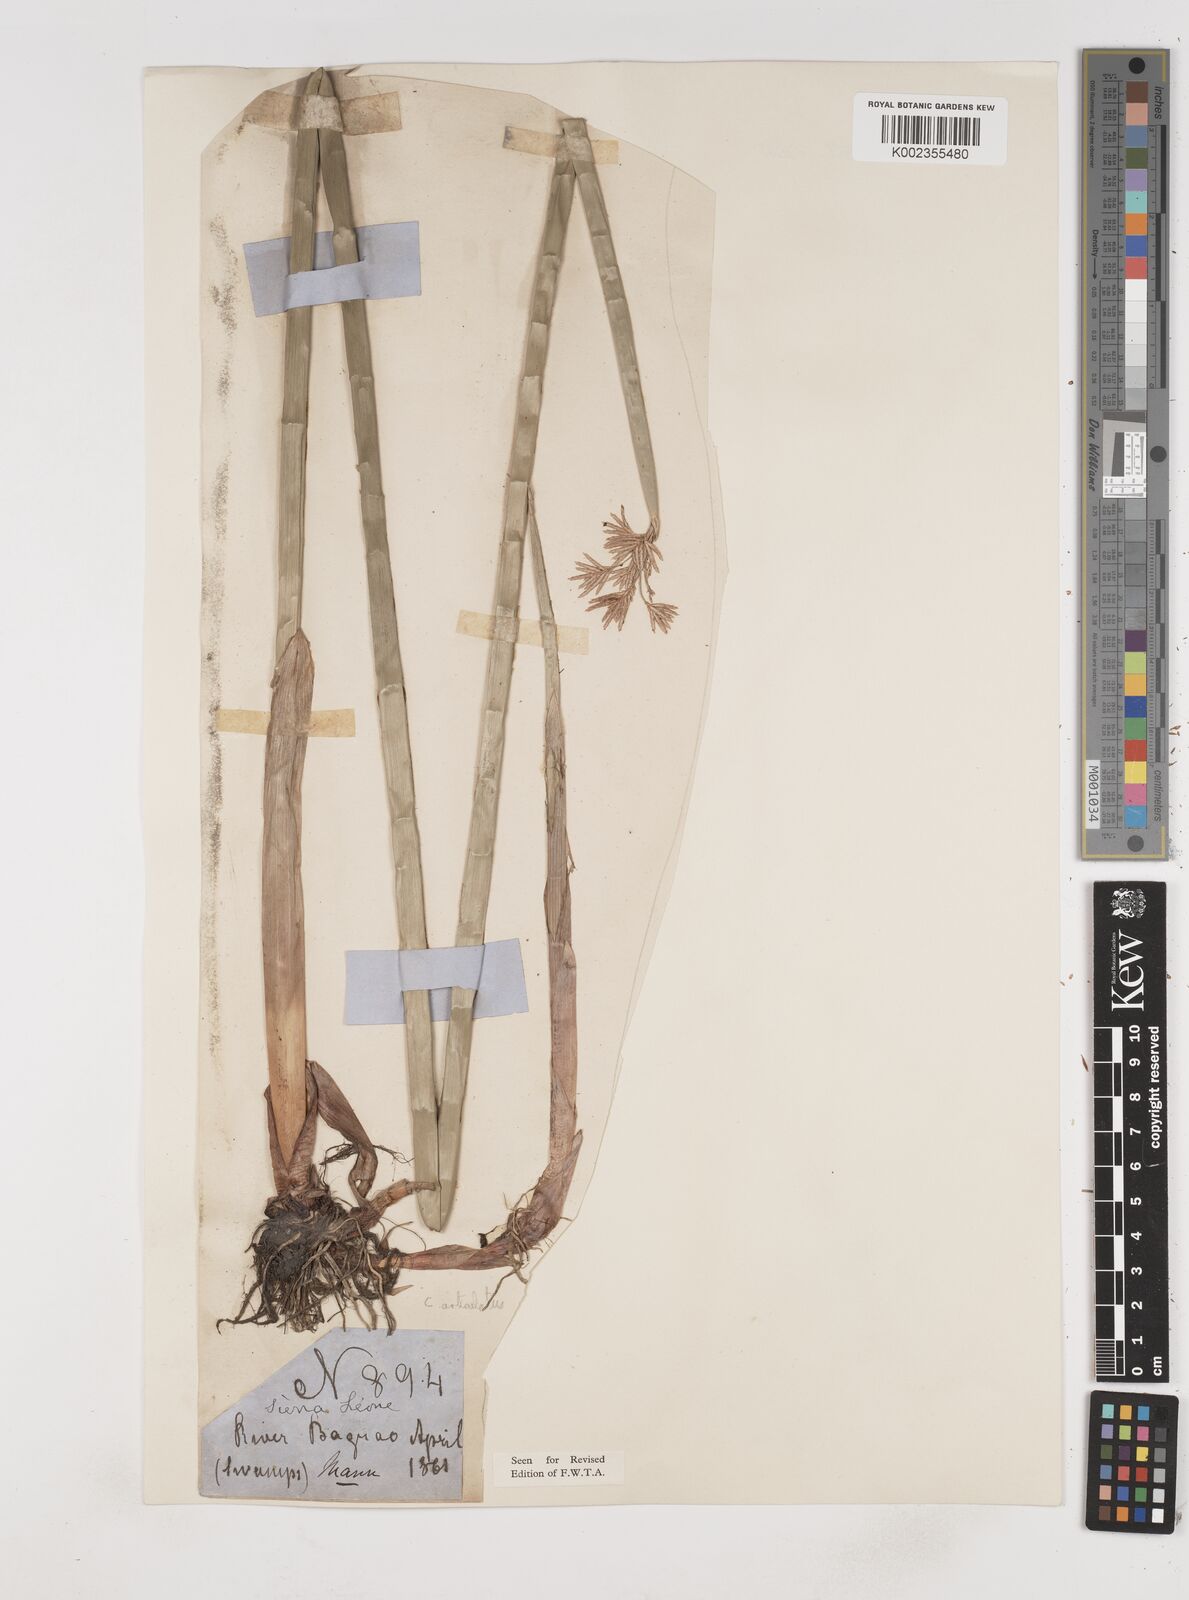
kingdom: Plantae
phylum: Tracheophyta
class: Liliopsida
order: Poales
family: Cyperaceae
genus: Cyperus
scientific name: Cyperus articulatus
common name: Jointed flatsedge
